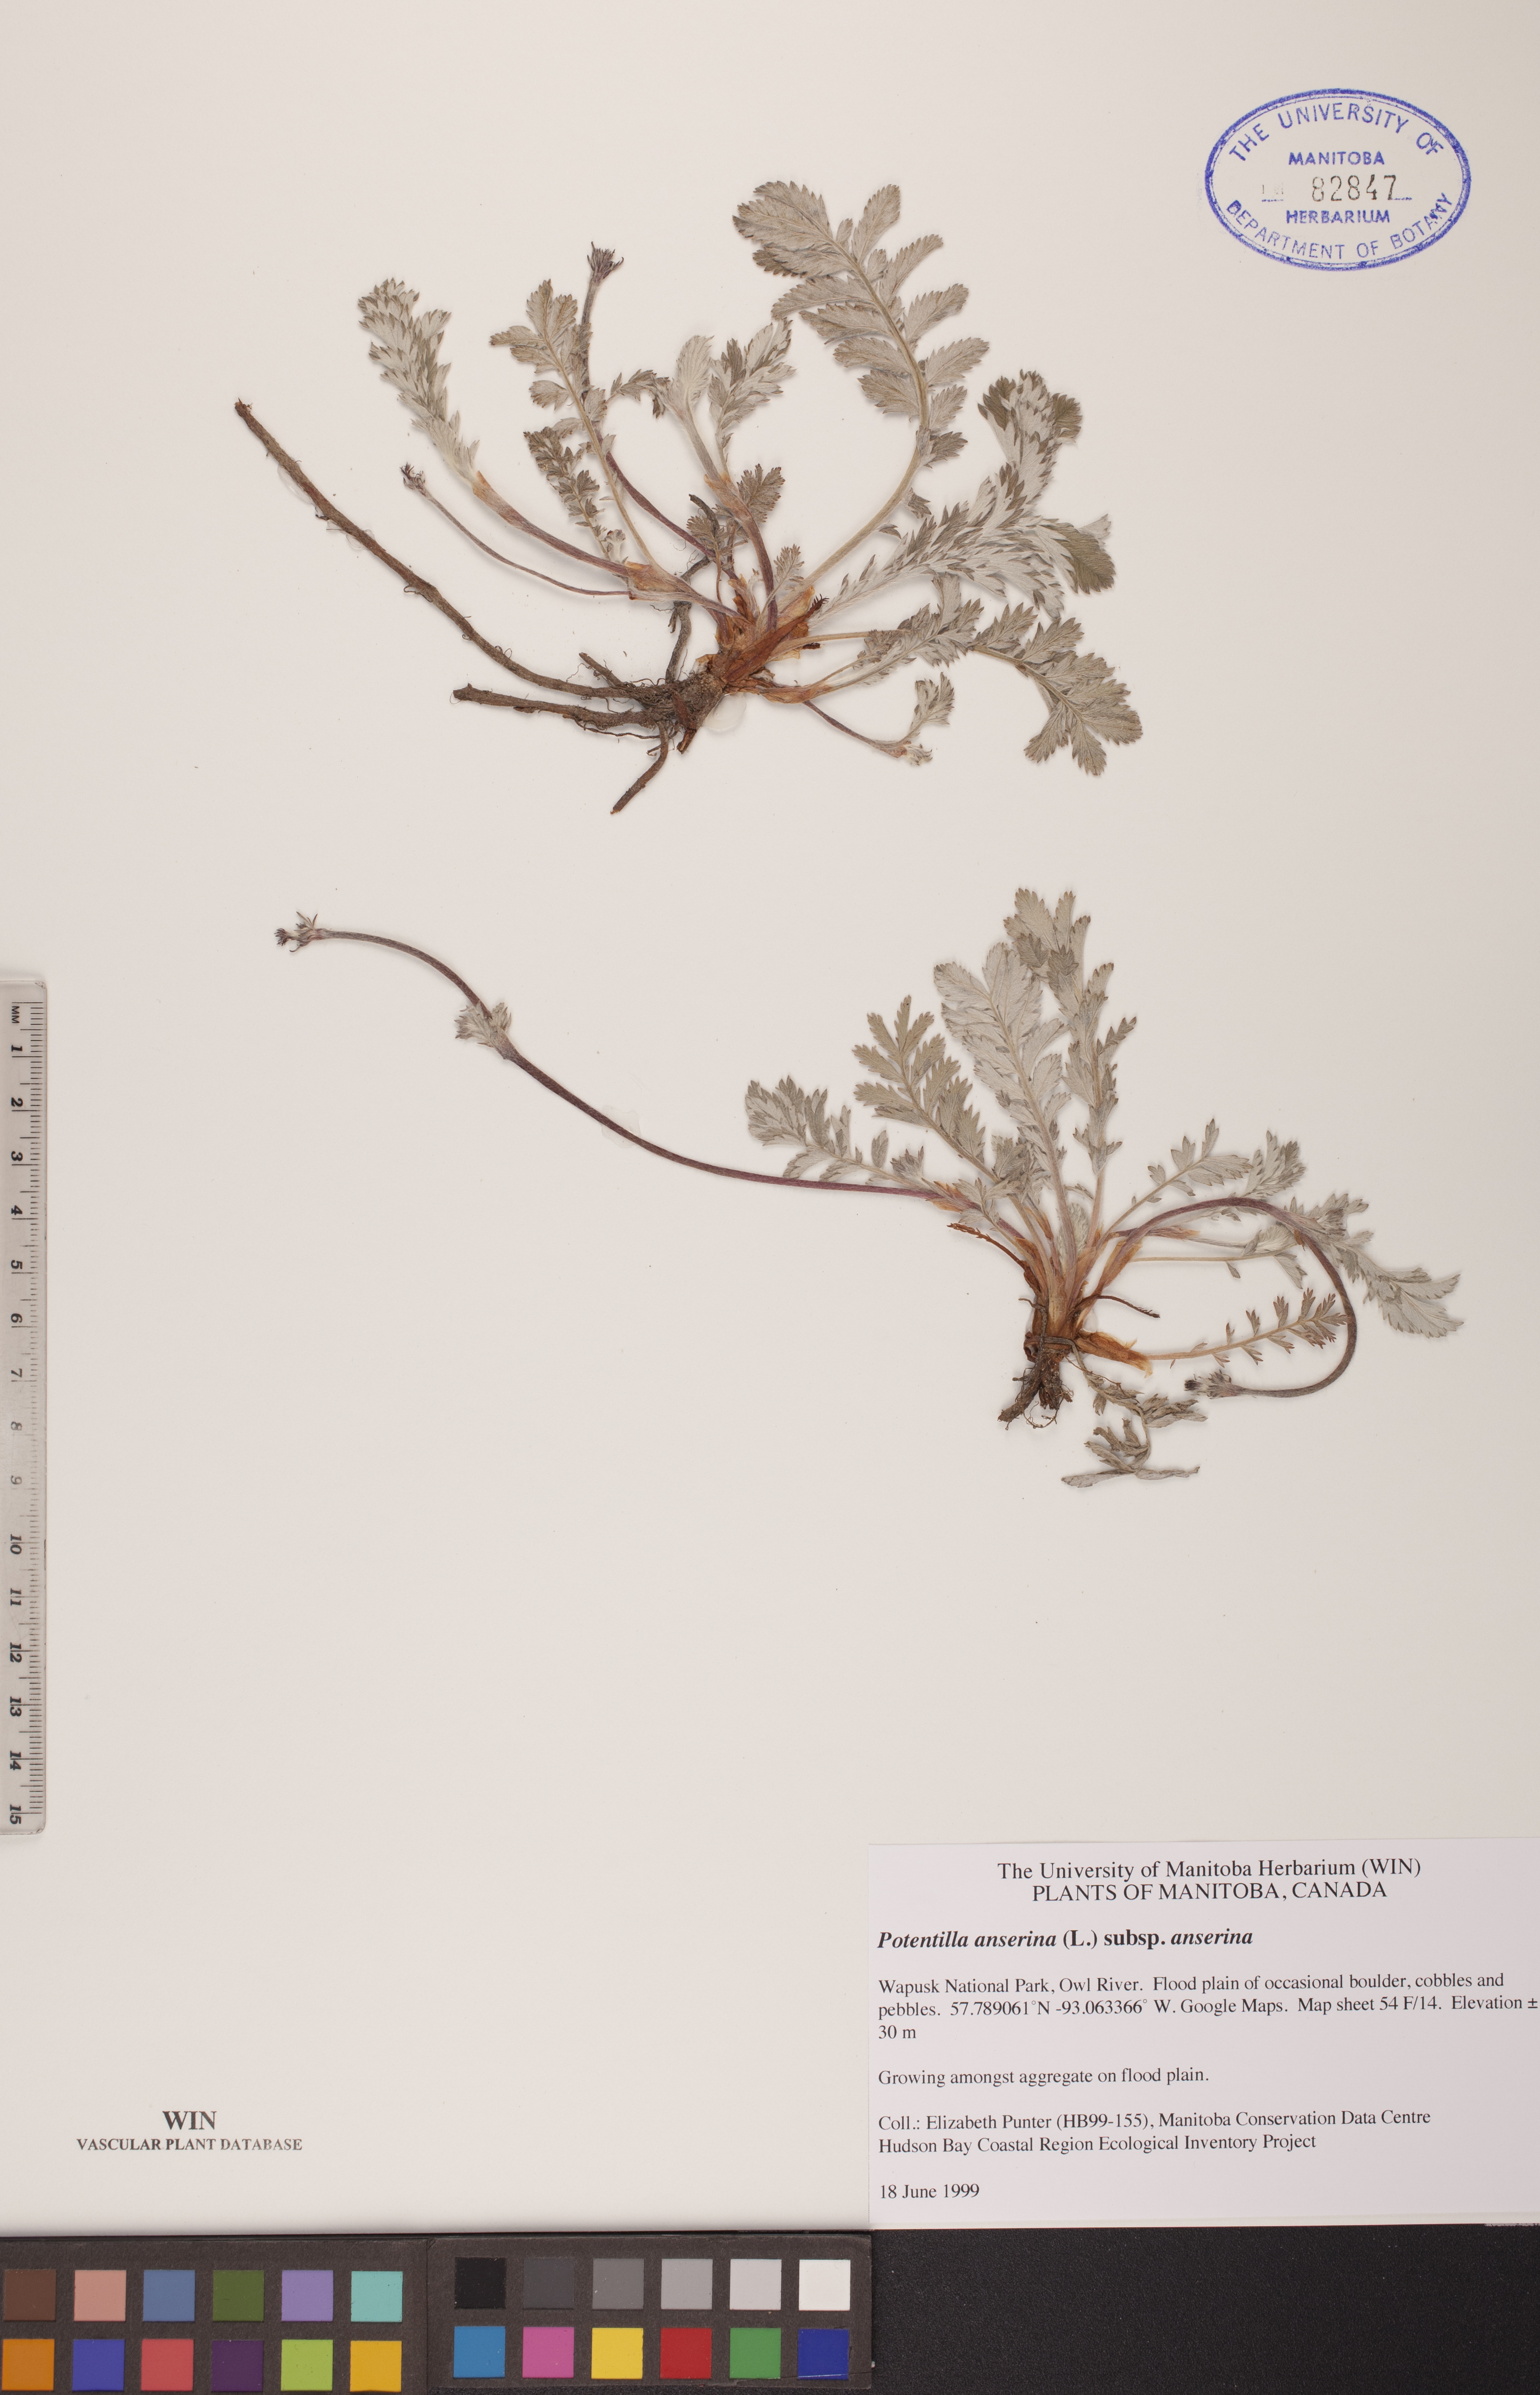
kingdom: Plantae
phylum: Tracheophyta
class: Magnoliopsida
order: Rosales
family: Rosaceae
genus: Argentina
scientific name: Argentina anserina
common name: Common silverweed
